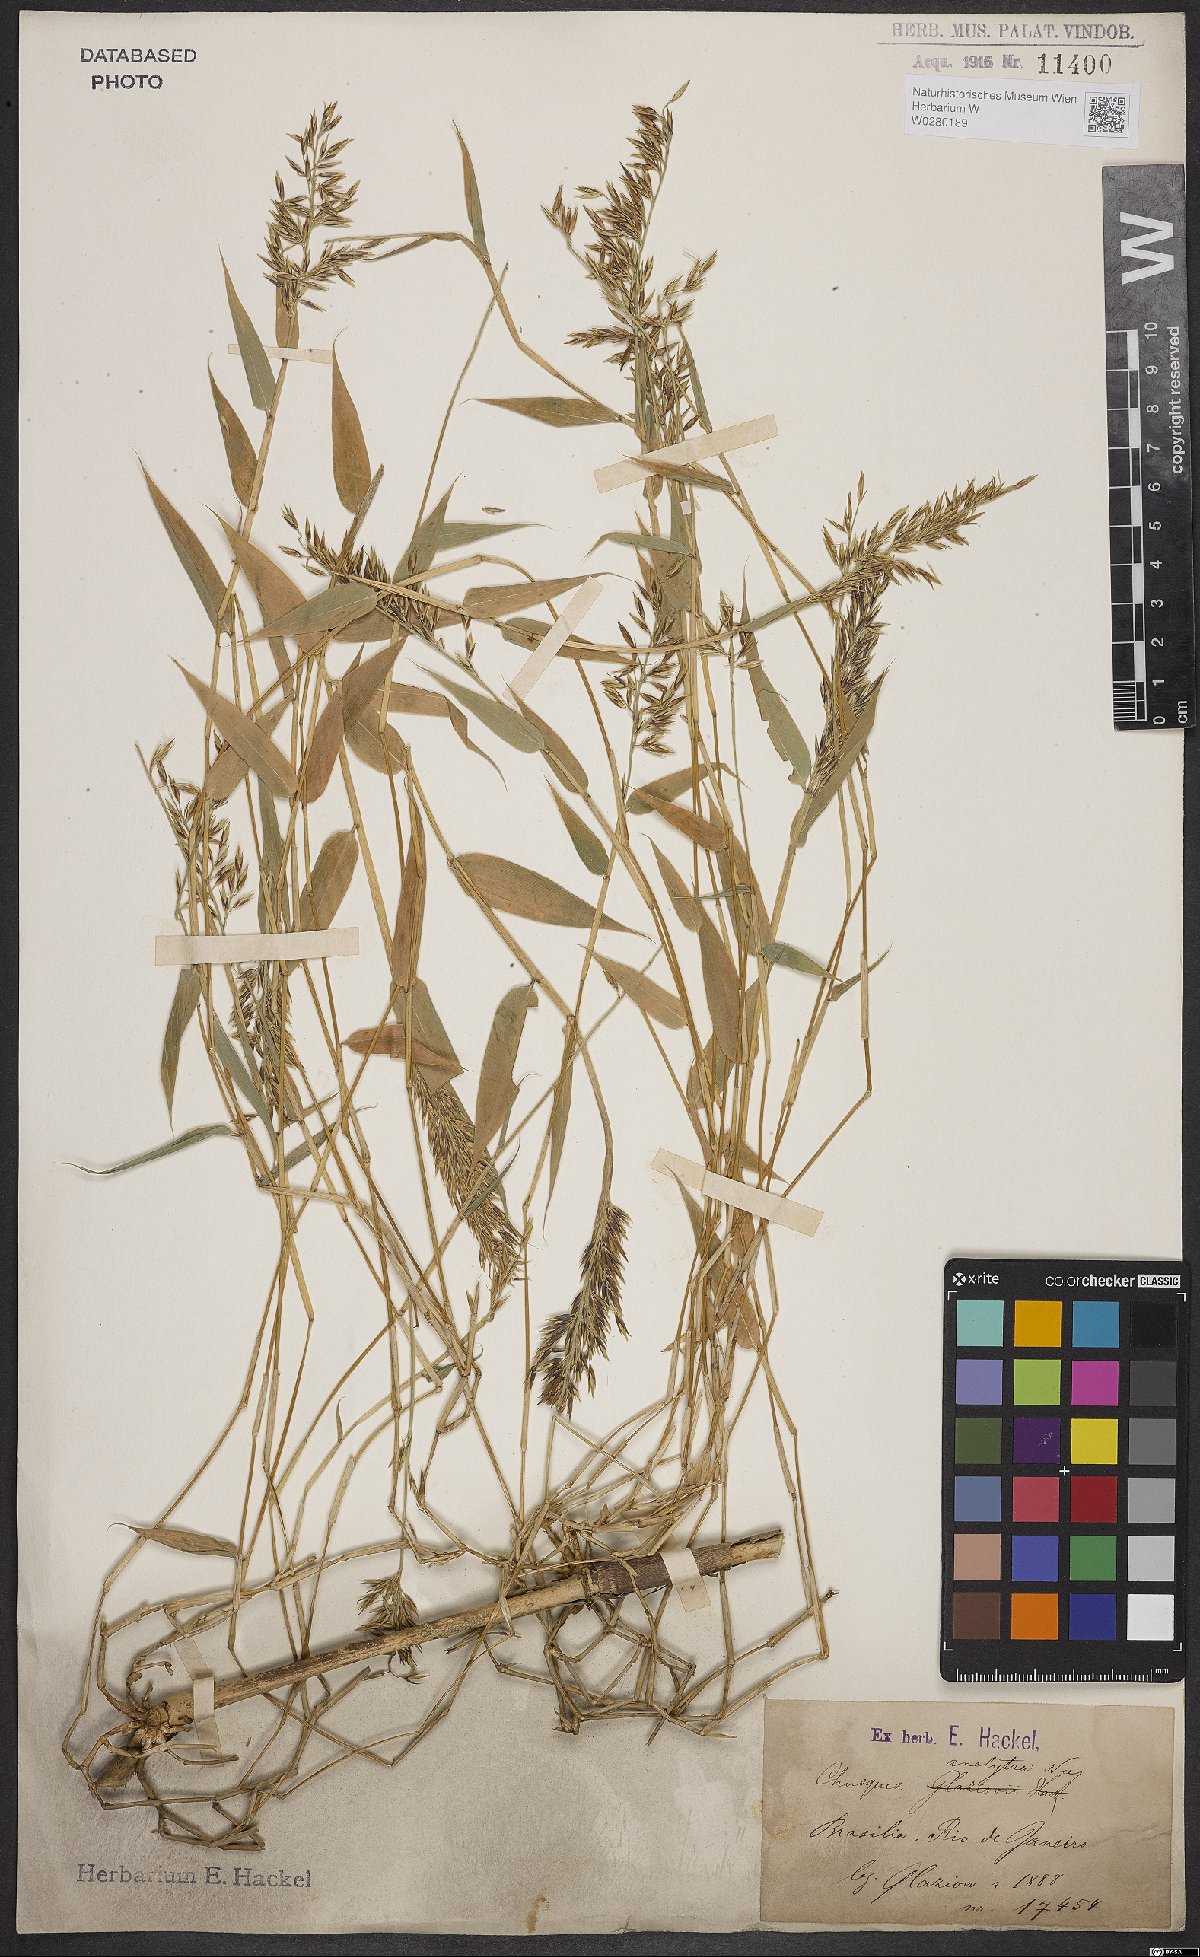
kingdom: Plantae
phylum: Tracheophyta
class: Liliopsida
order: Poales
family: Poaceae
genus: Chusquea
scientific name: Chusquea anelythra
